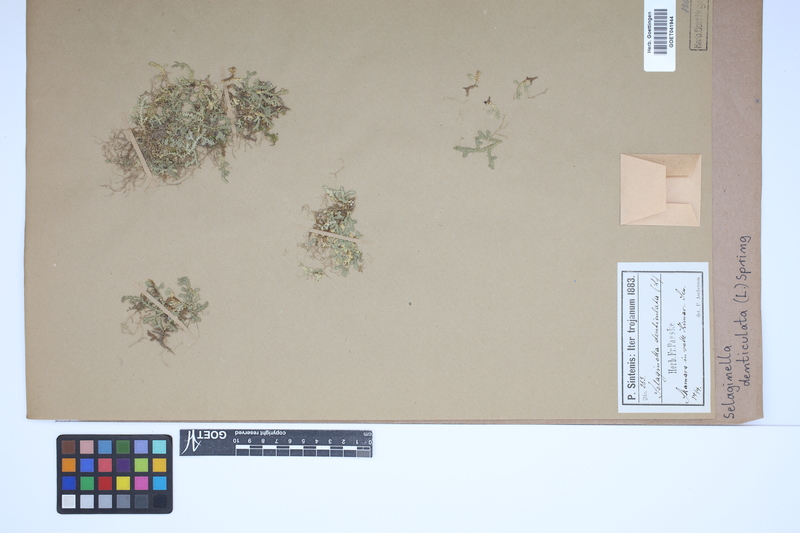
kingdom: Plantae
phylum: Tracheophyta
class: Lycopodiopsida
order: Selaginellales
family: Selaginellaceae
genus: Selaginella
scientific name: Selaginella denticulata
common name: Toothed-leaved clubmoss
